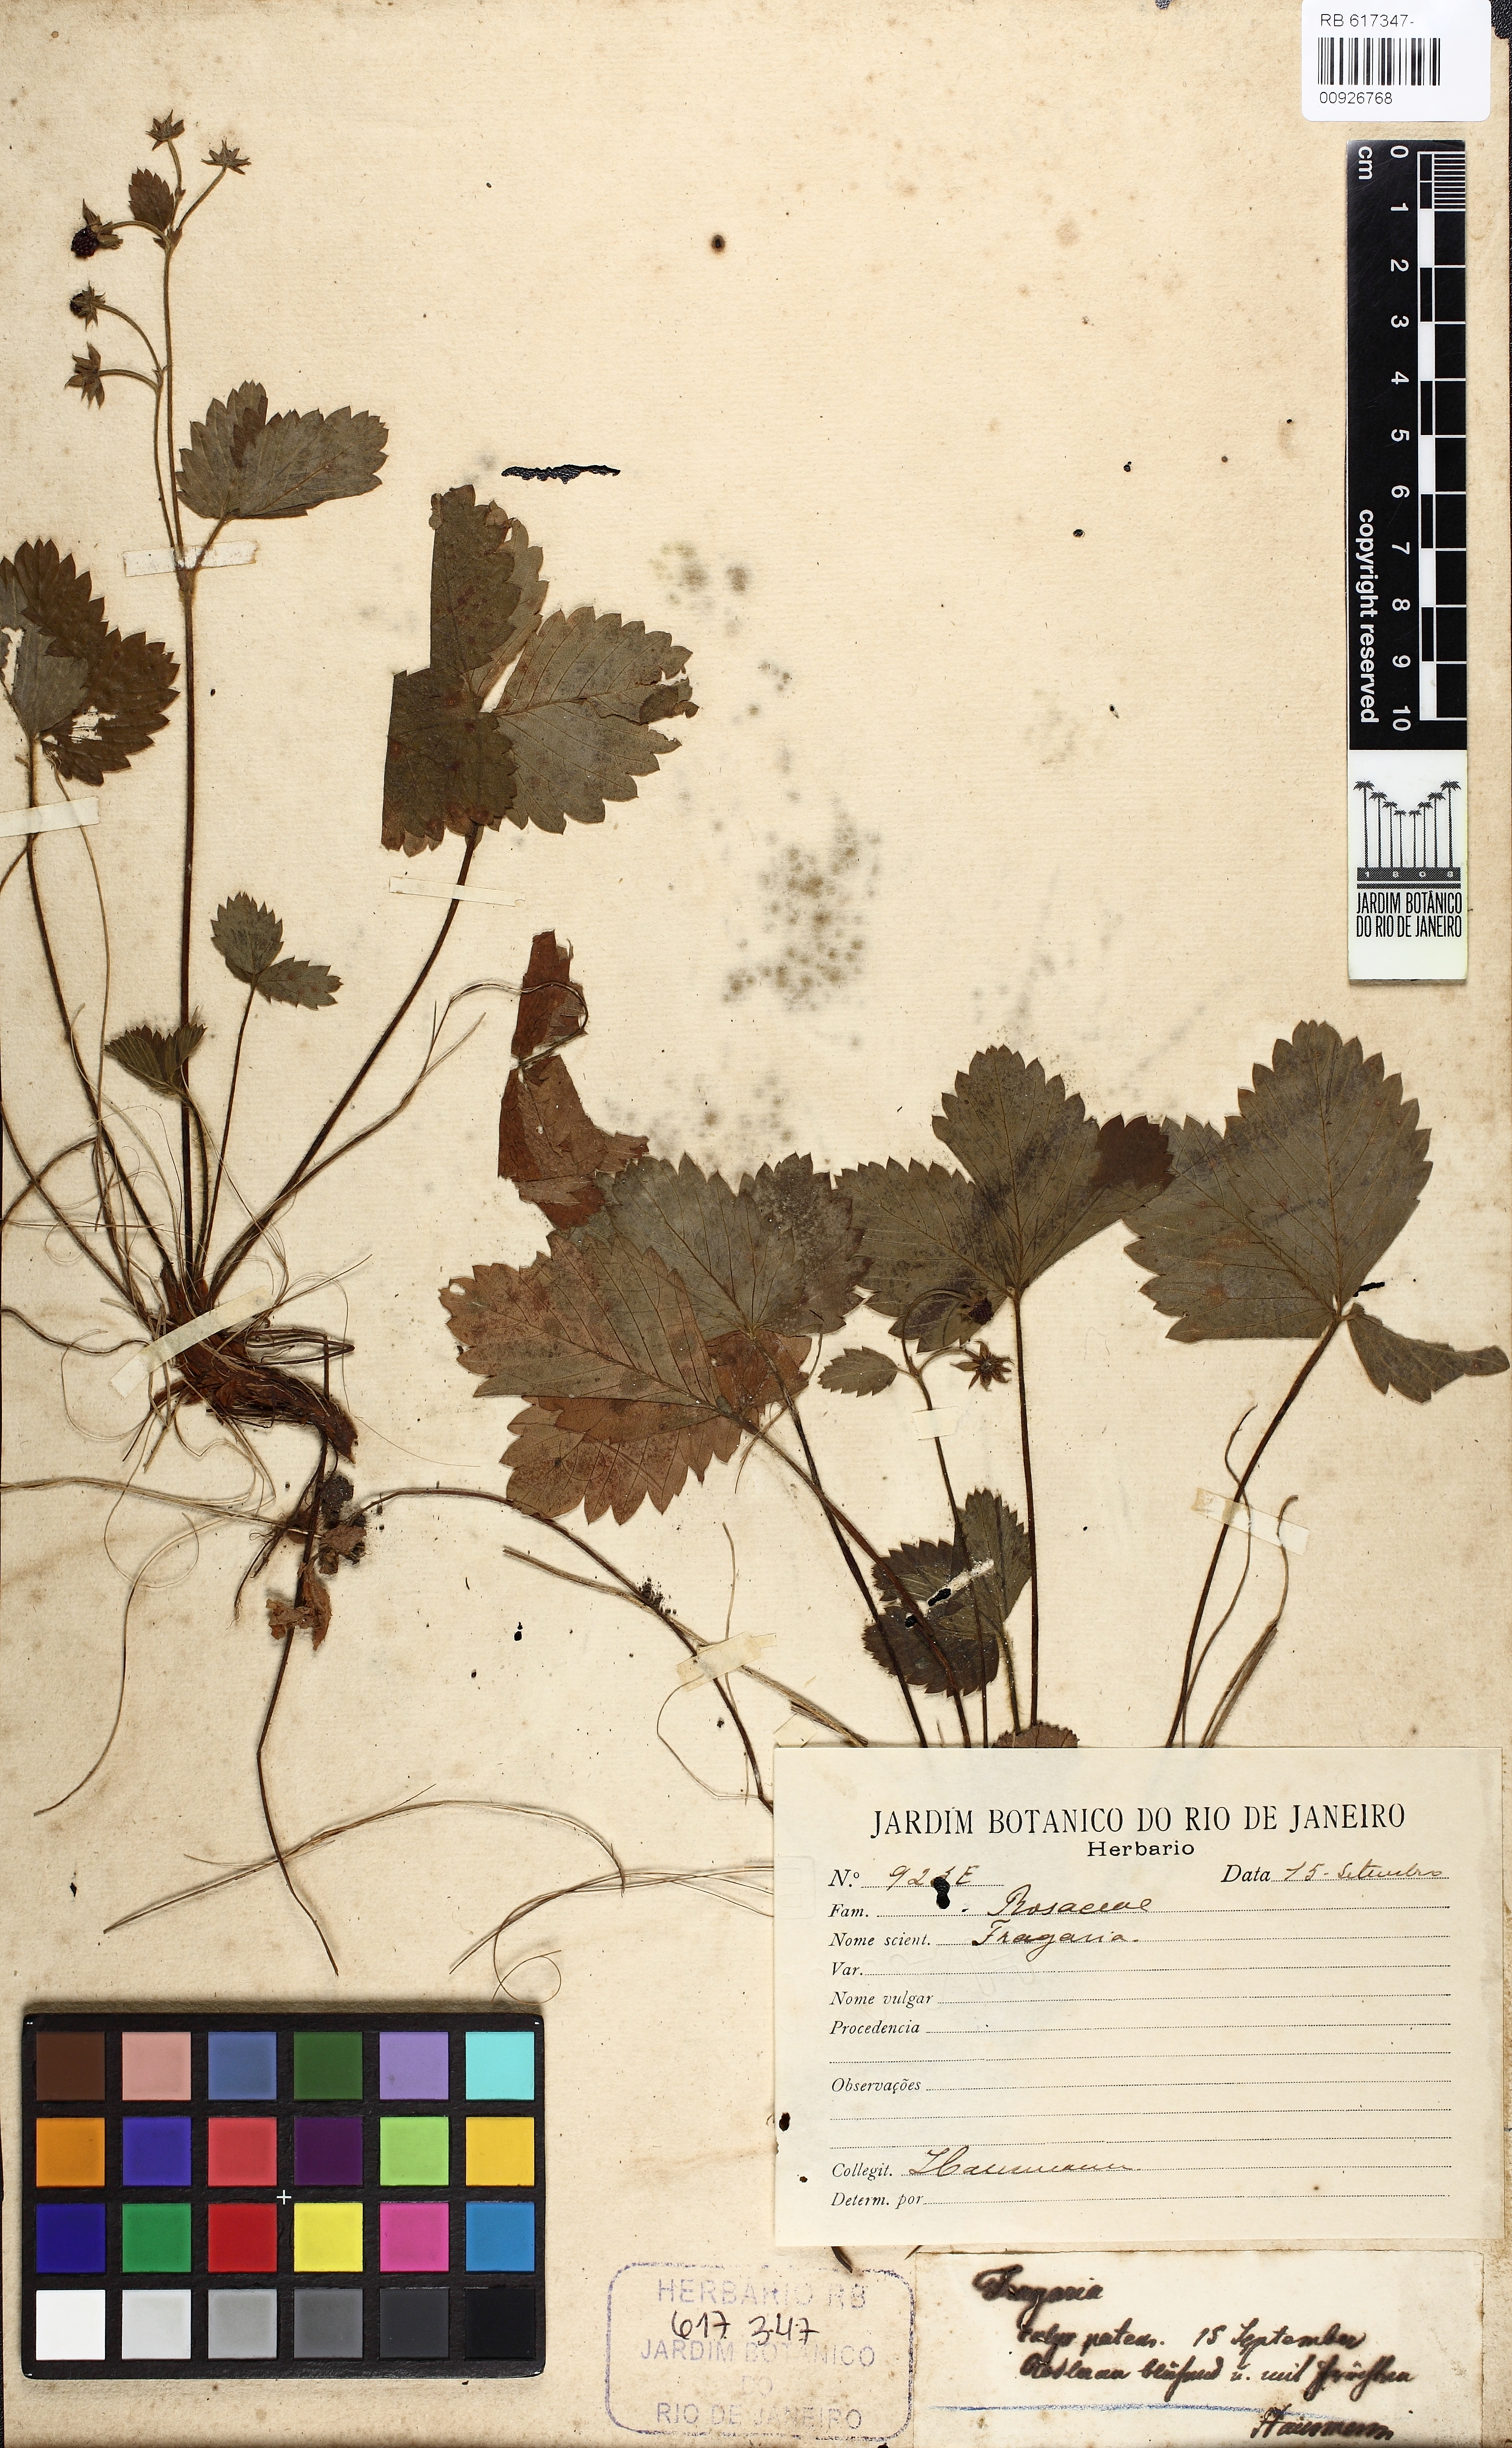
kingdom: Plantae
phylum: Tracheophyta
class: Magnoliopsida
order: Rosales
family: Rosaceae
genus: Fragaria
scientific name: Fragaria
